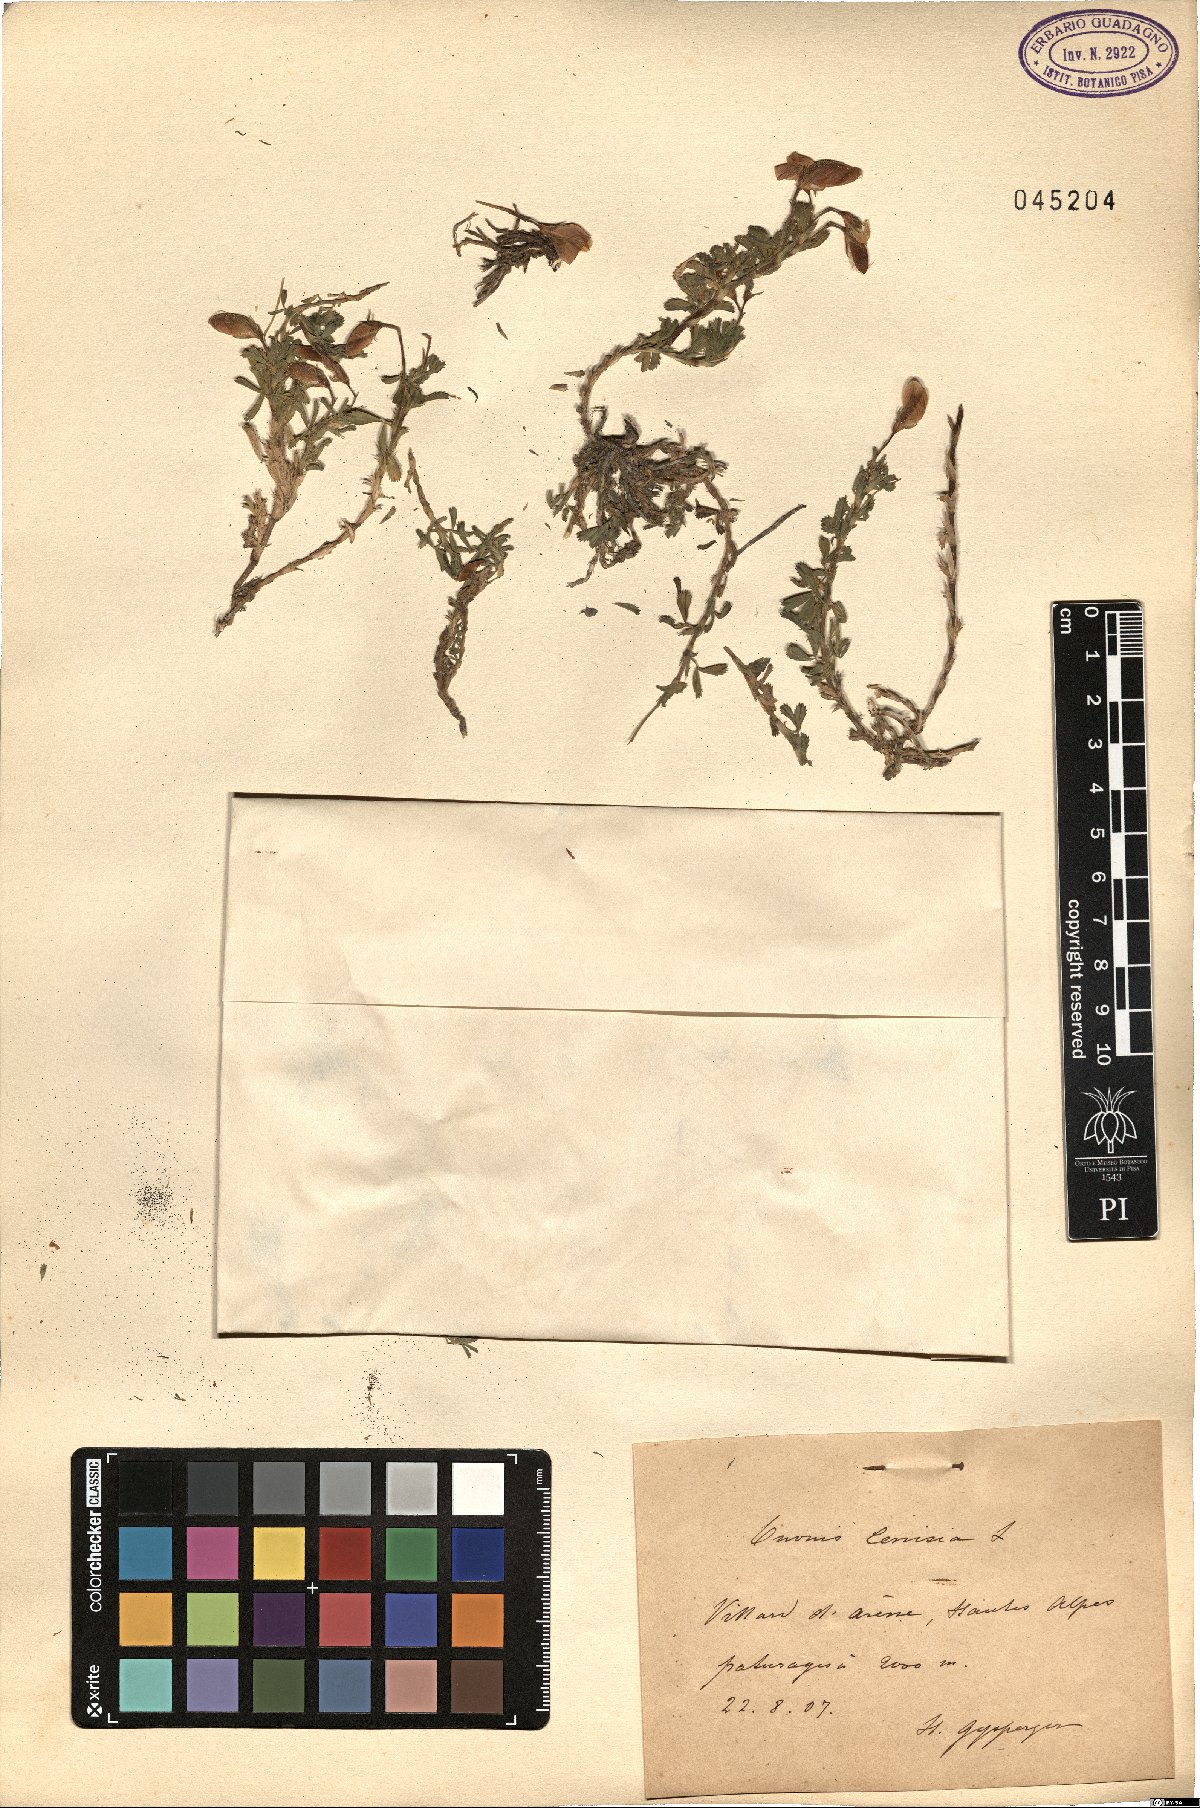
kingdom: Plantae
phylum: Tracheophyta
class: Magnoliopsida
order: Fabales
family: Fabaceae
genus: Ononis
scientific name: Ononis cristata
